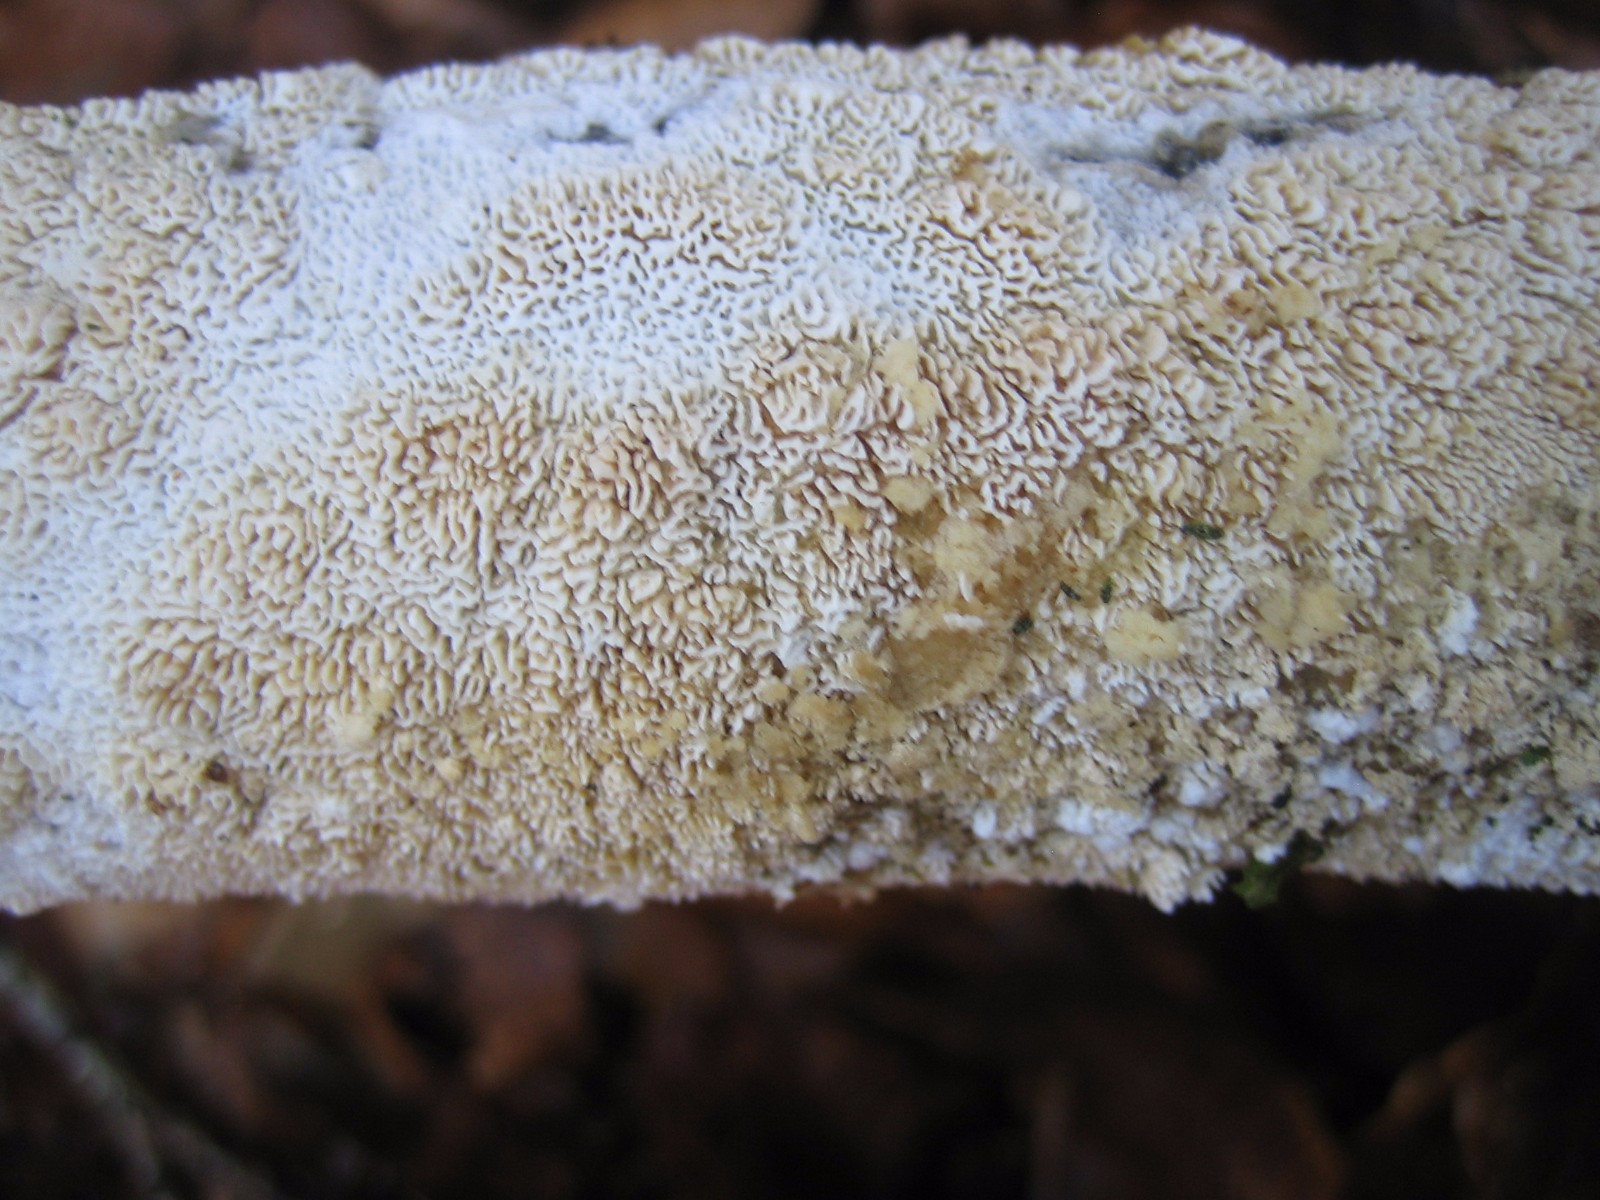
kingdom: Fungi
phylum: Basidiomycota
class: Agaricomycetes
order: Hymenochaetales
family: Schizoporaceae
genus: Schizopora
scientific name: Schizopora paradoxa
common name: hvid tandsvamp
